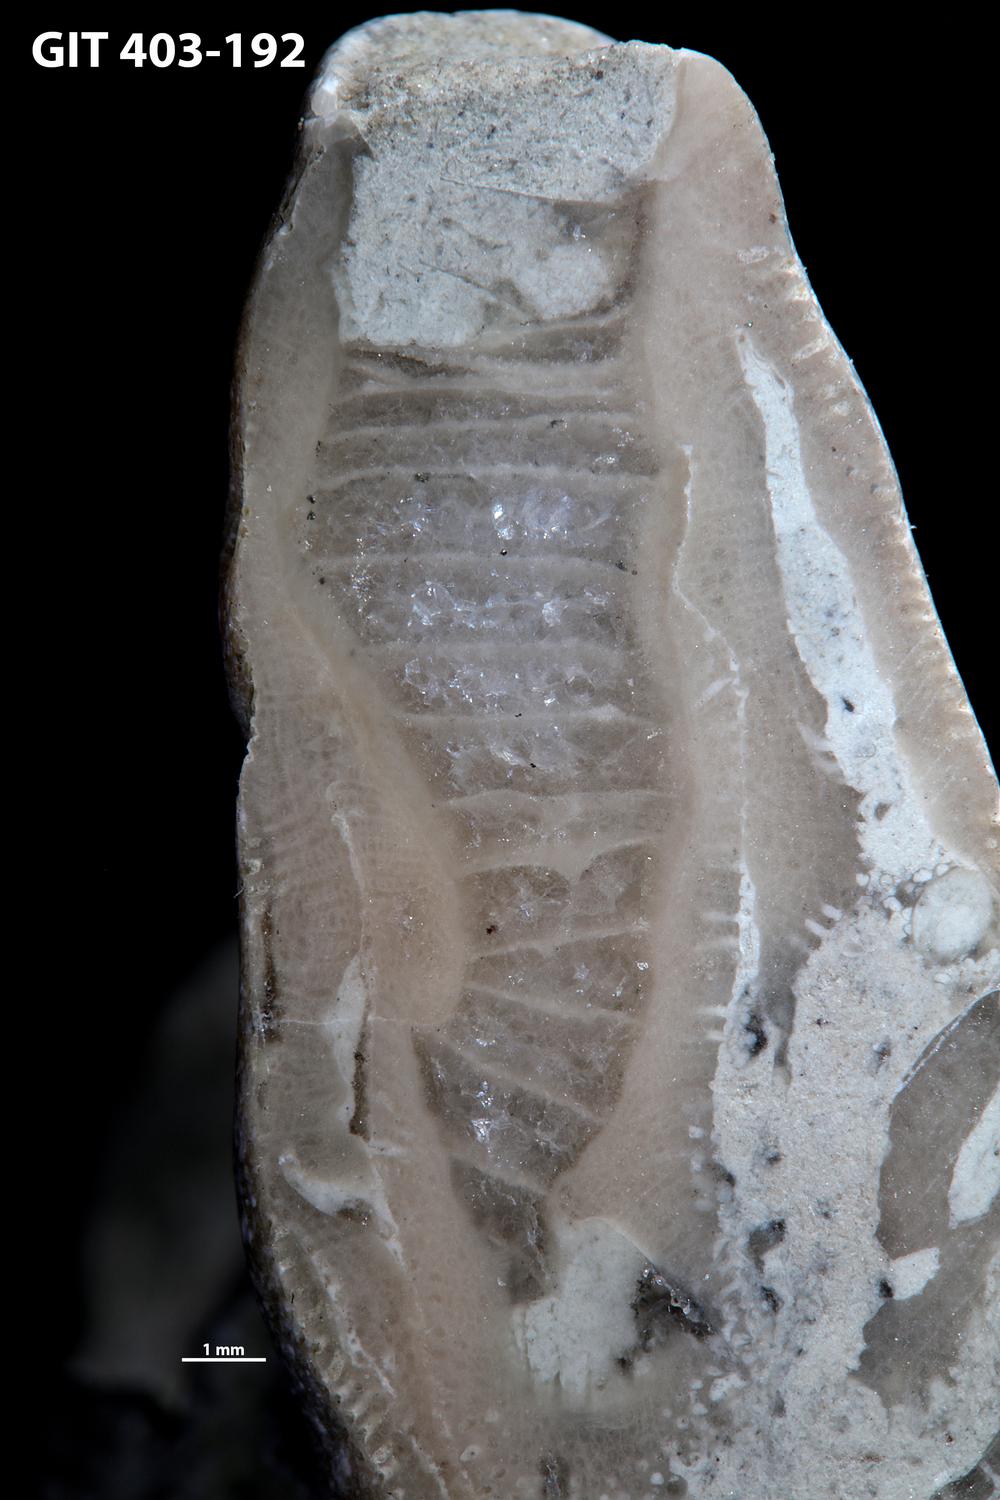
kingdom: Animalia
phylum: Bryozoa
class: Stenolaemata
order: Cystoporida
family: Fistuliporidae
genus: Fistulipora
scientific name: Fistulipora przhidolensis
